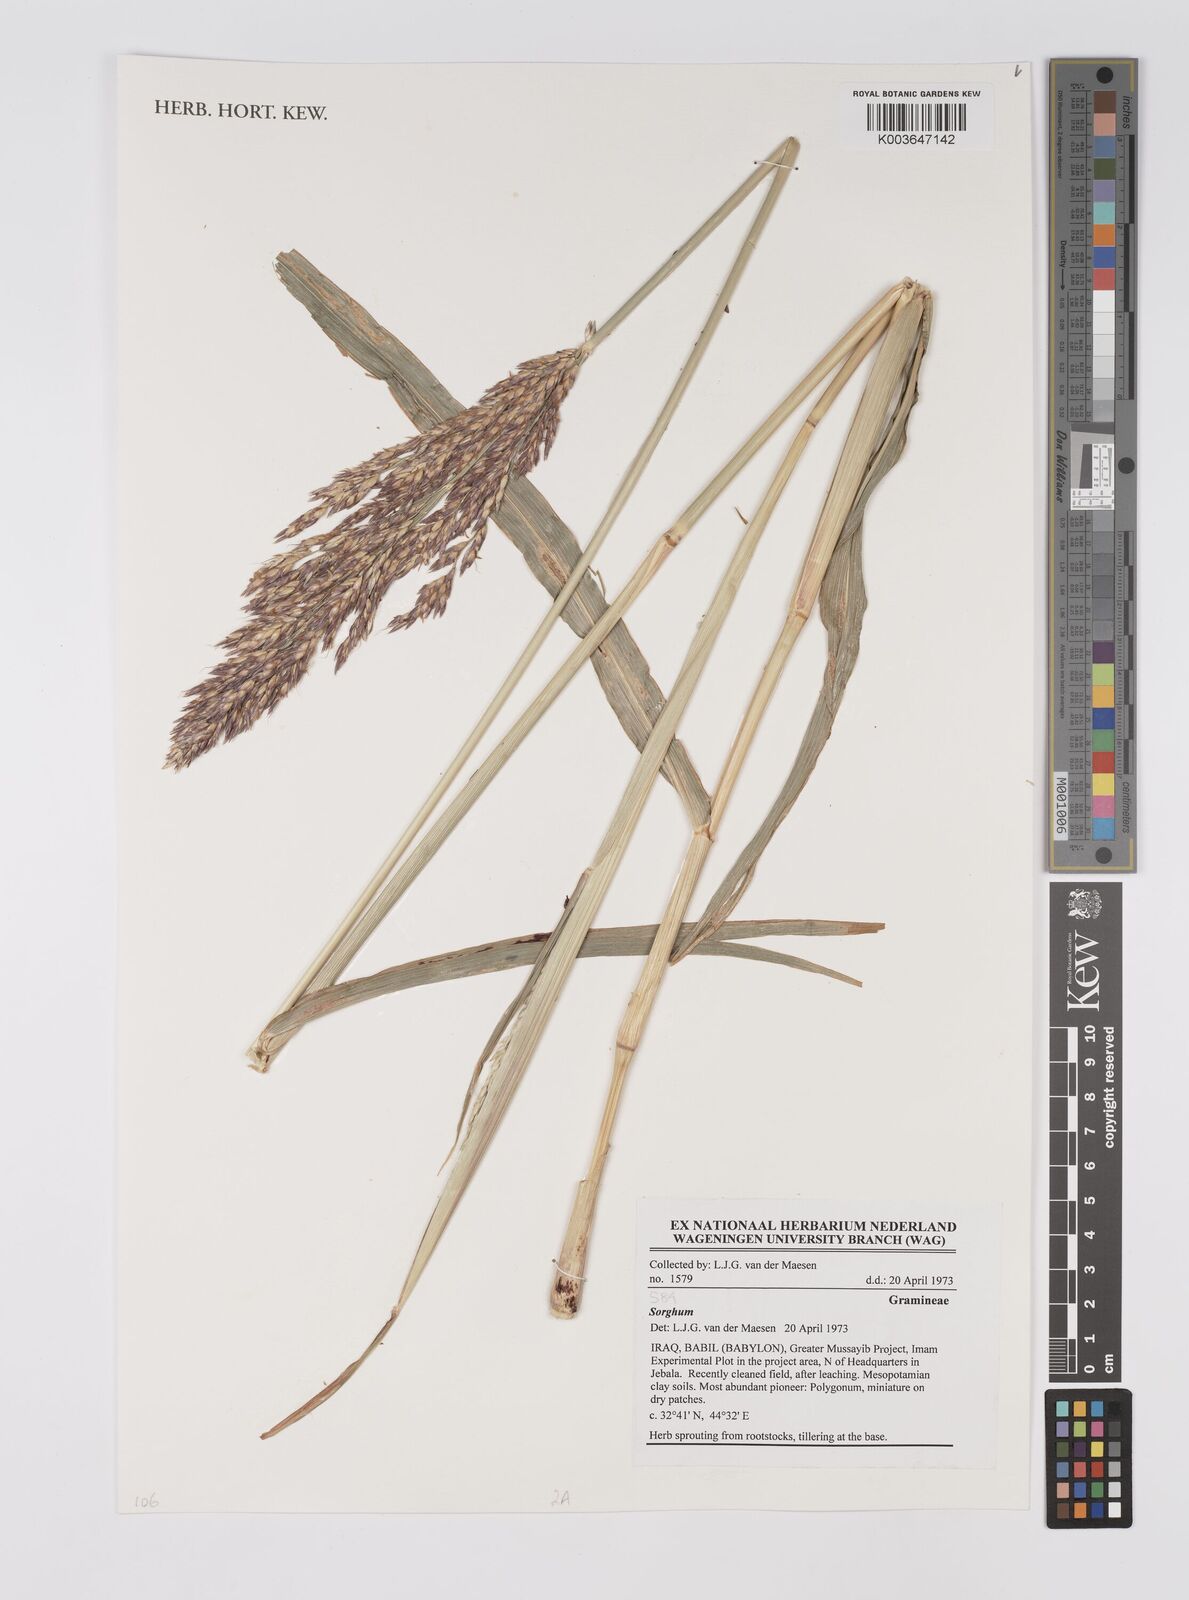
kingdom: Plantae
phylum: Tracheophyta
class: Liliopsida
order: Poales
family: Poaceae
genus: Sorghum
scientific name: Sorghum
